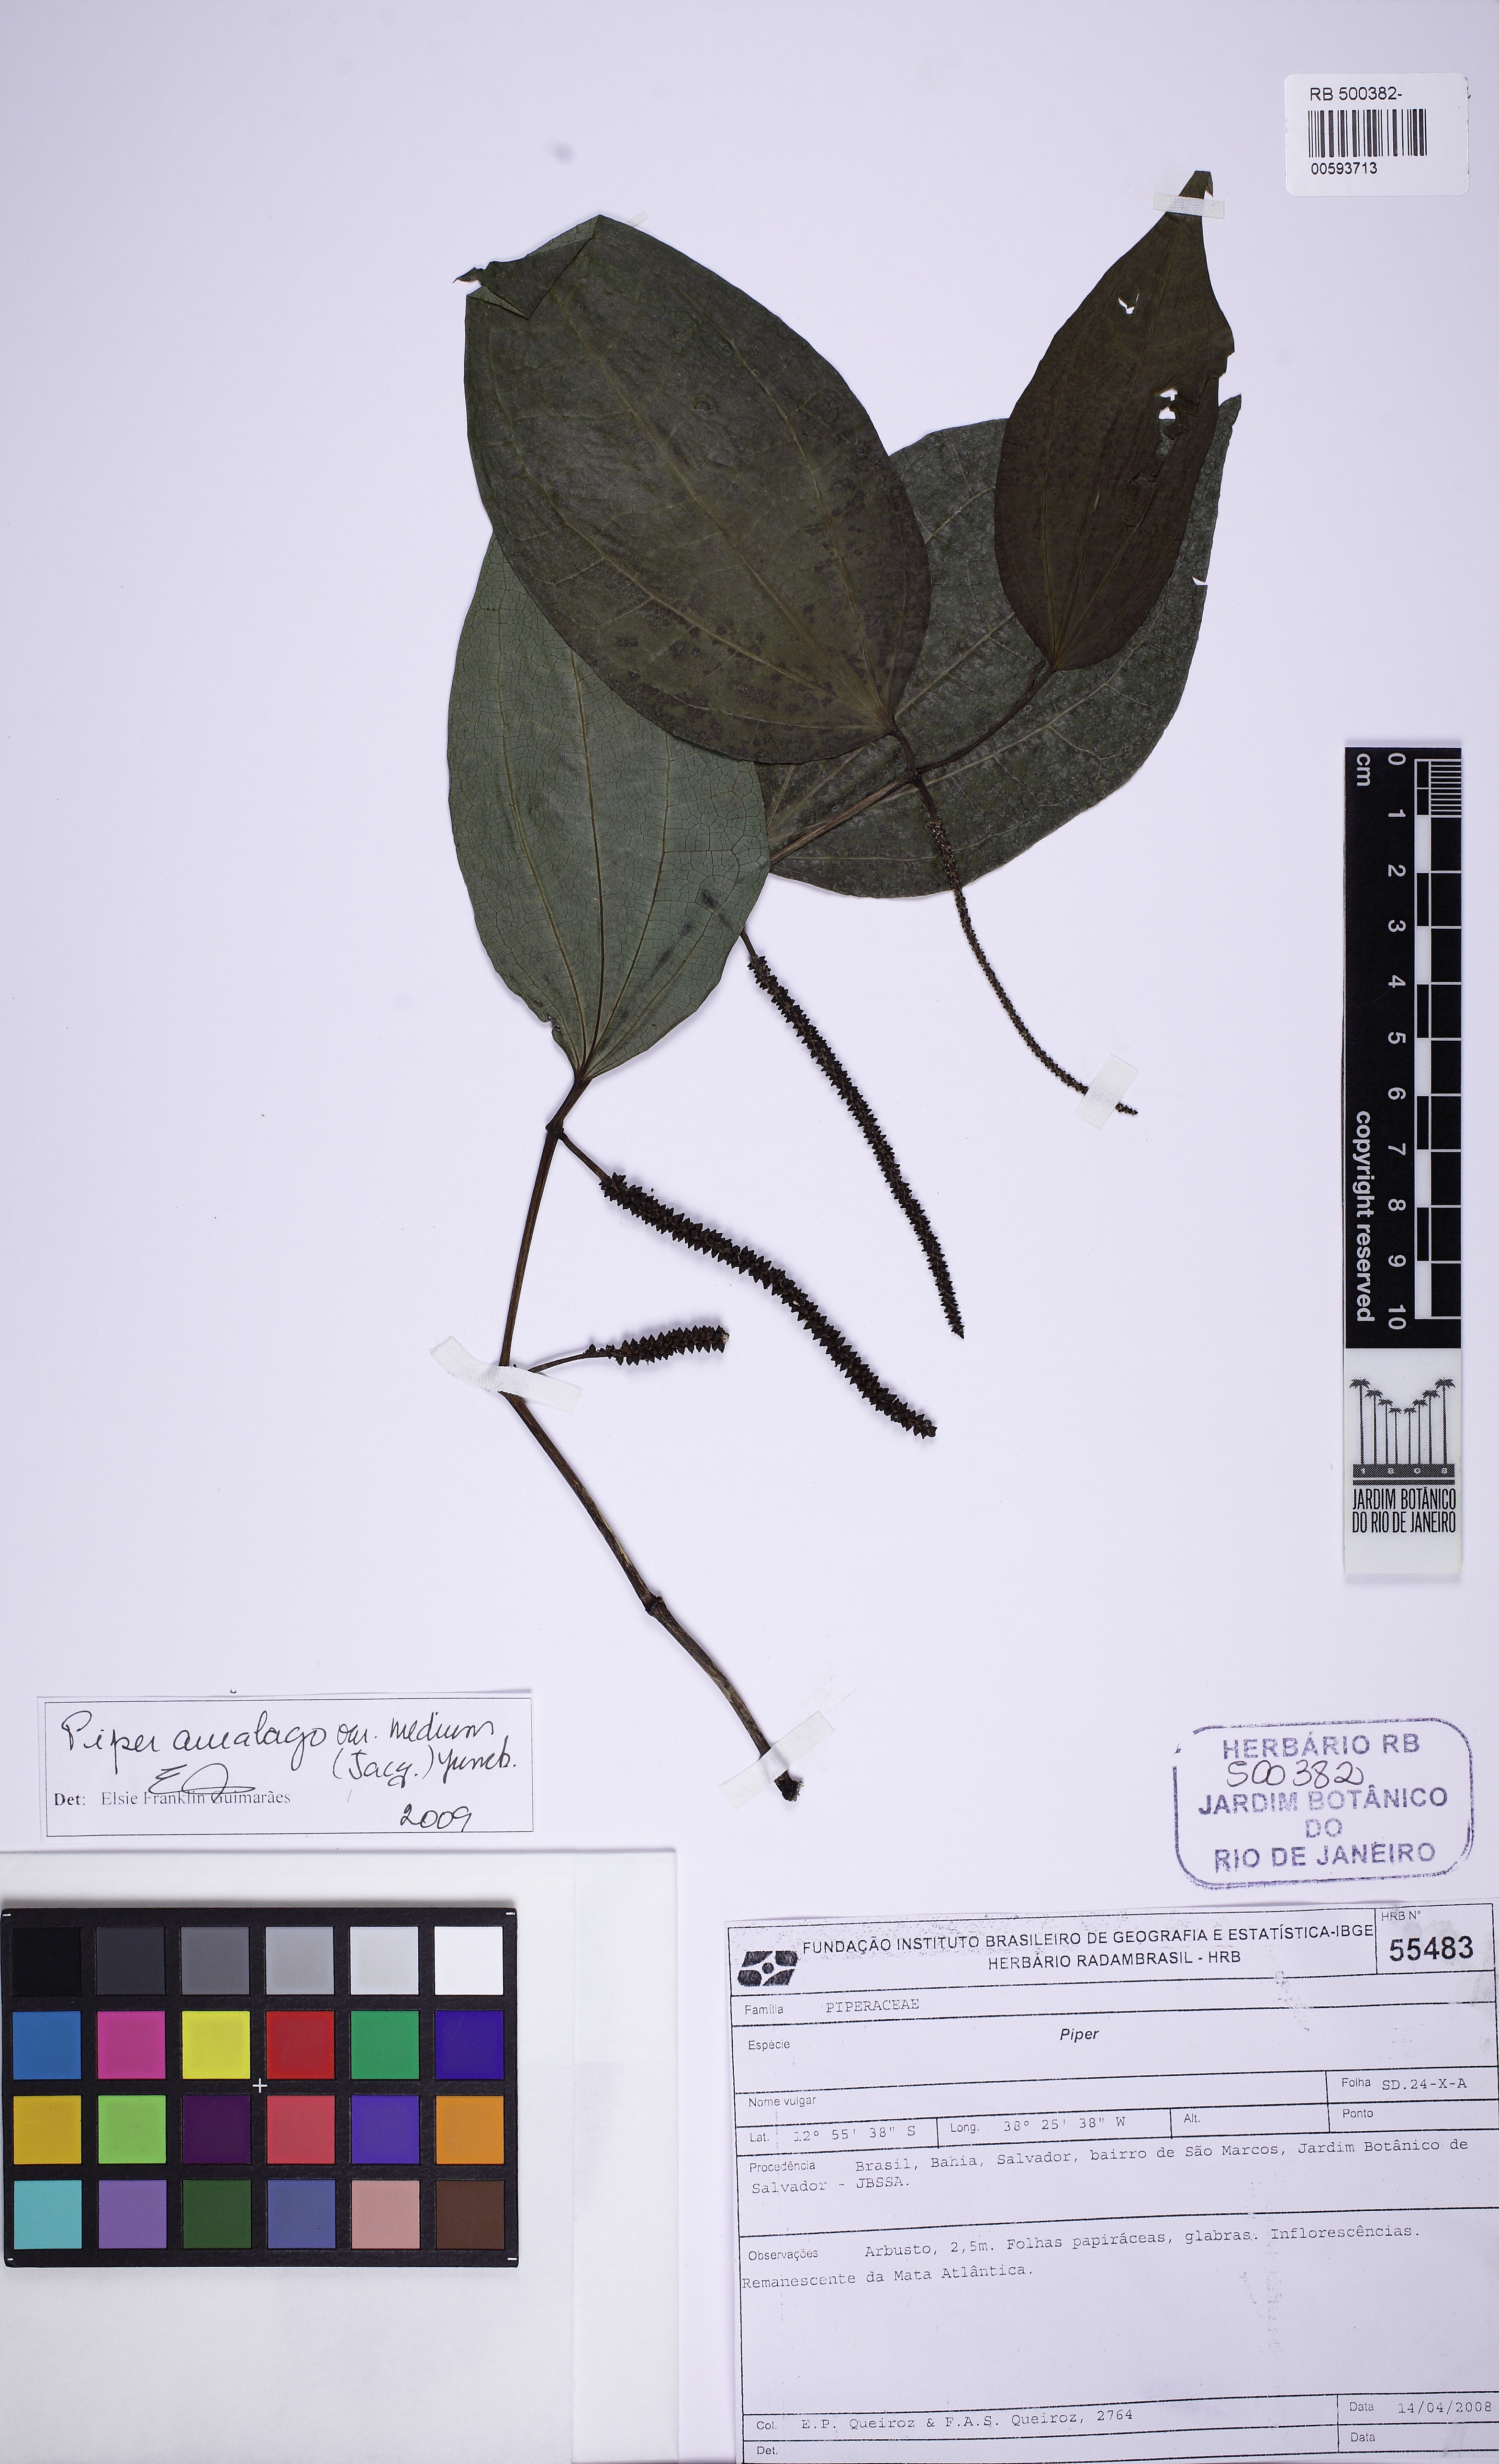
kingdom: Plantae
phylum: Tracheophyta
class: Magnoliopsida
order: Piperales
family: Piperaceae
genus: Piper
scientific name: Piper amalago
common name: Pepper-elder
